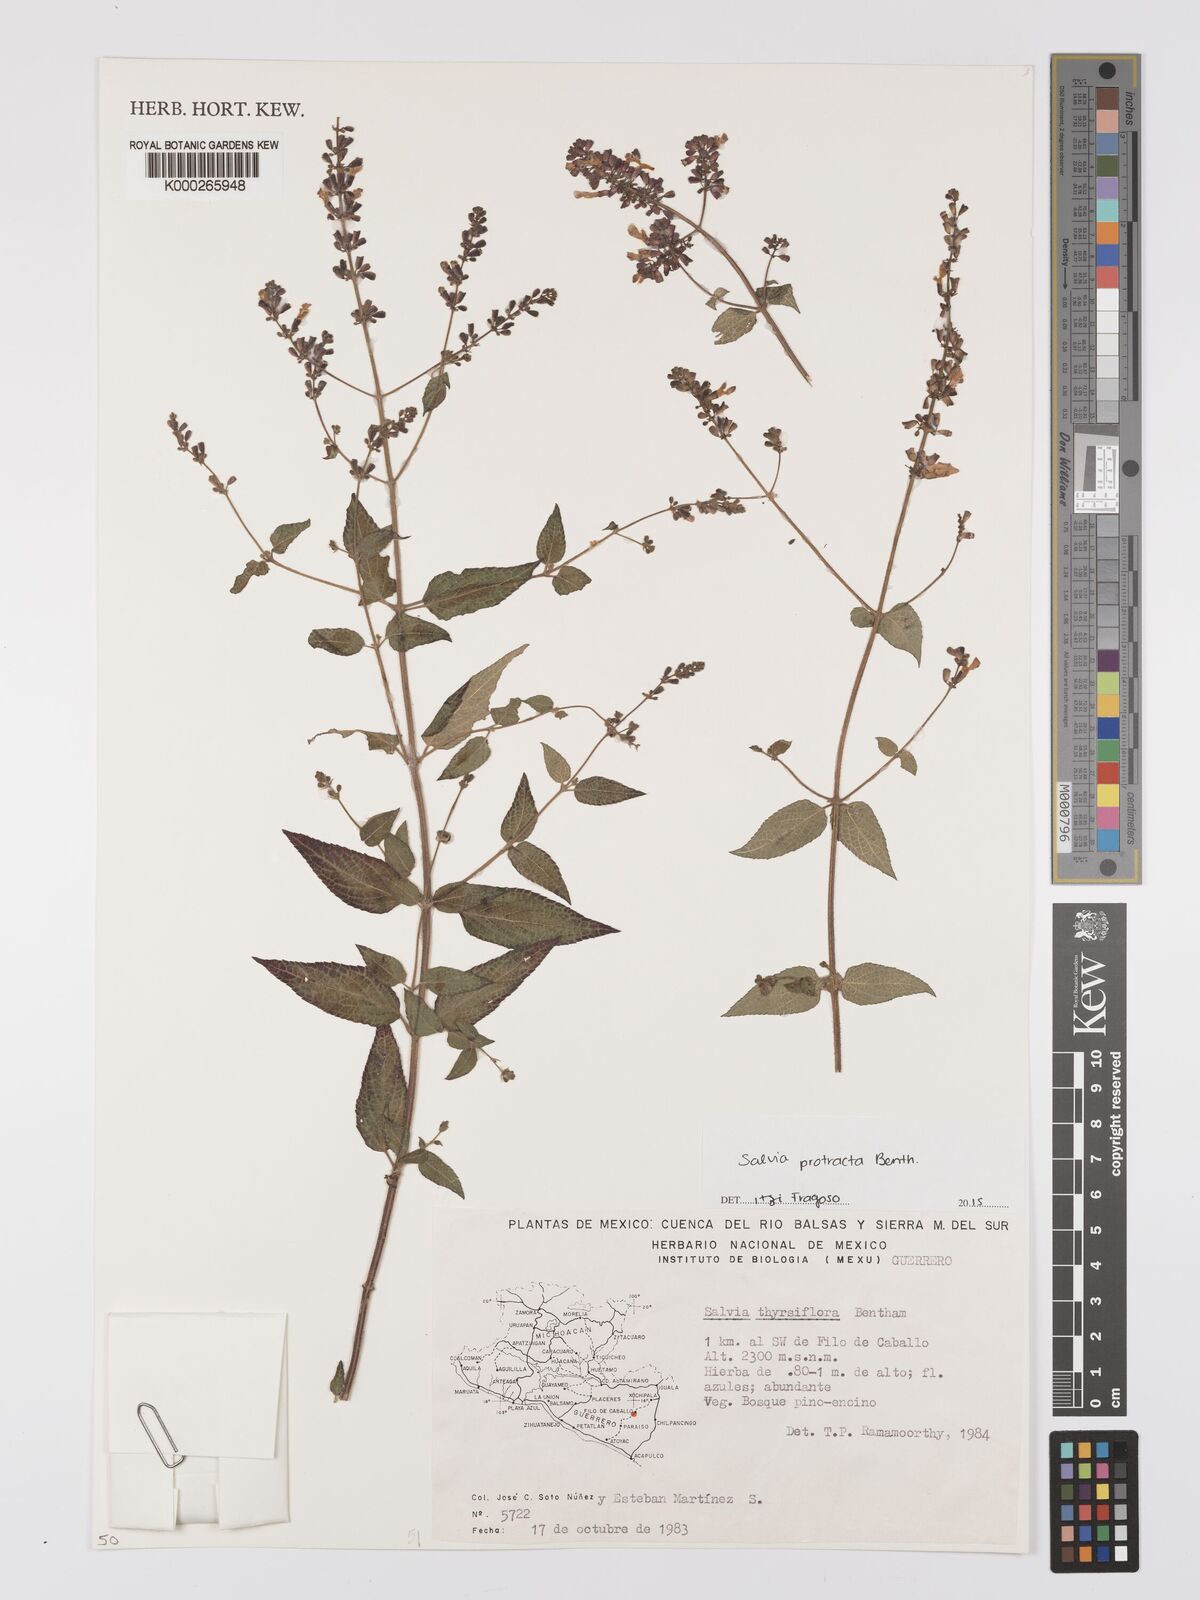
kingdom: Plantae
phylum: Tracheophyta
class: Magnoliopsida
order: Lamiales
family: Lamiaceae
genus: Salvia
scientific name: Salvia protracta
